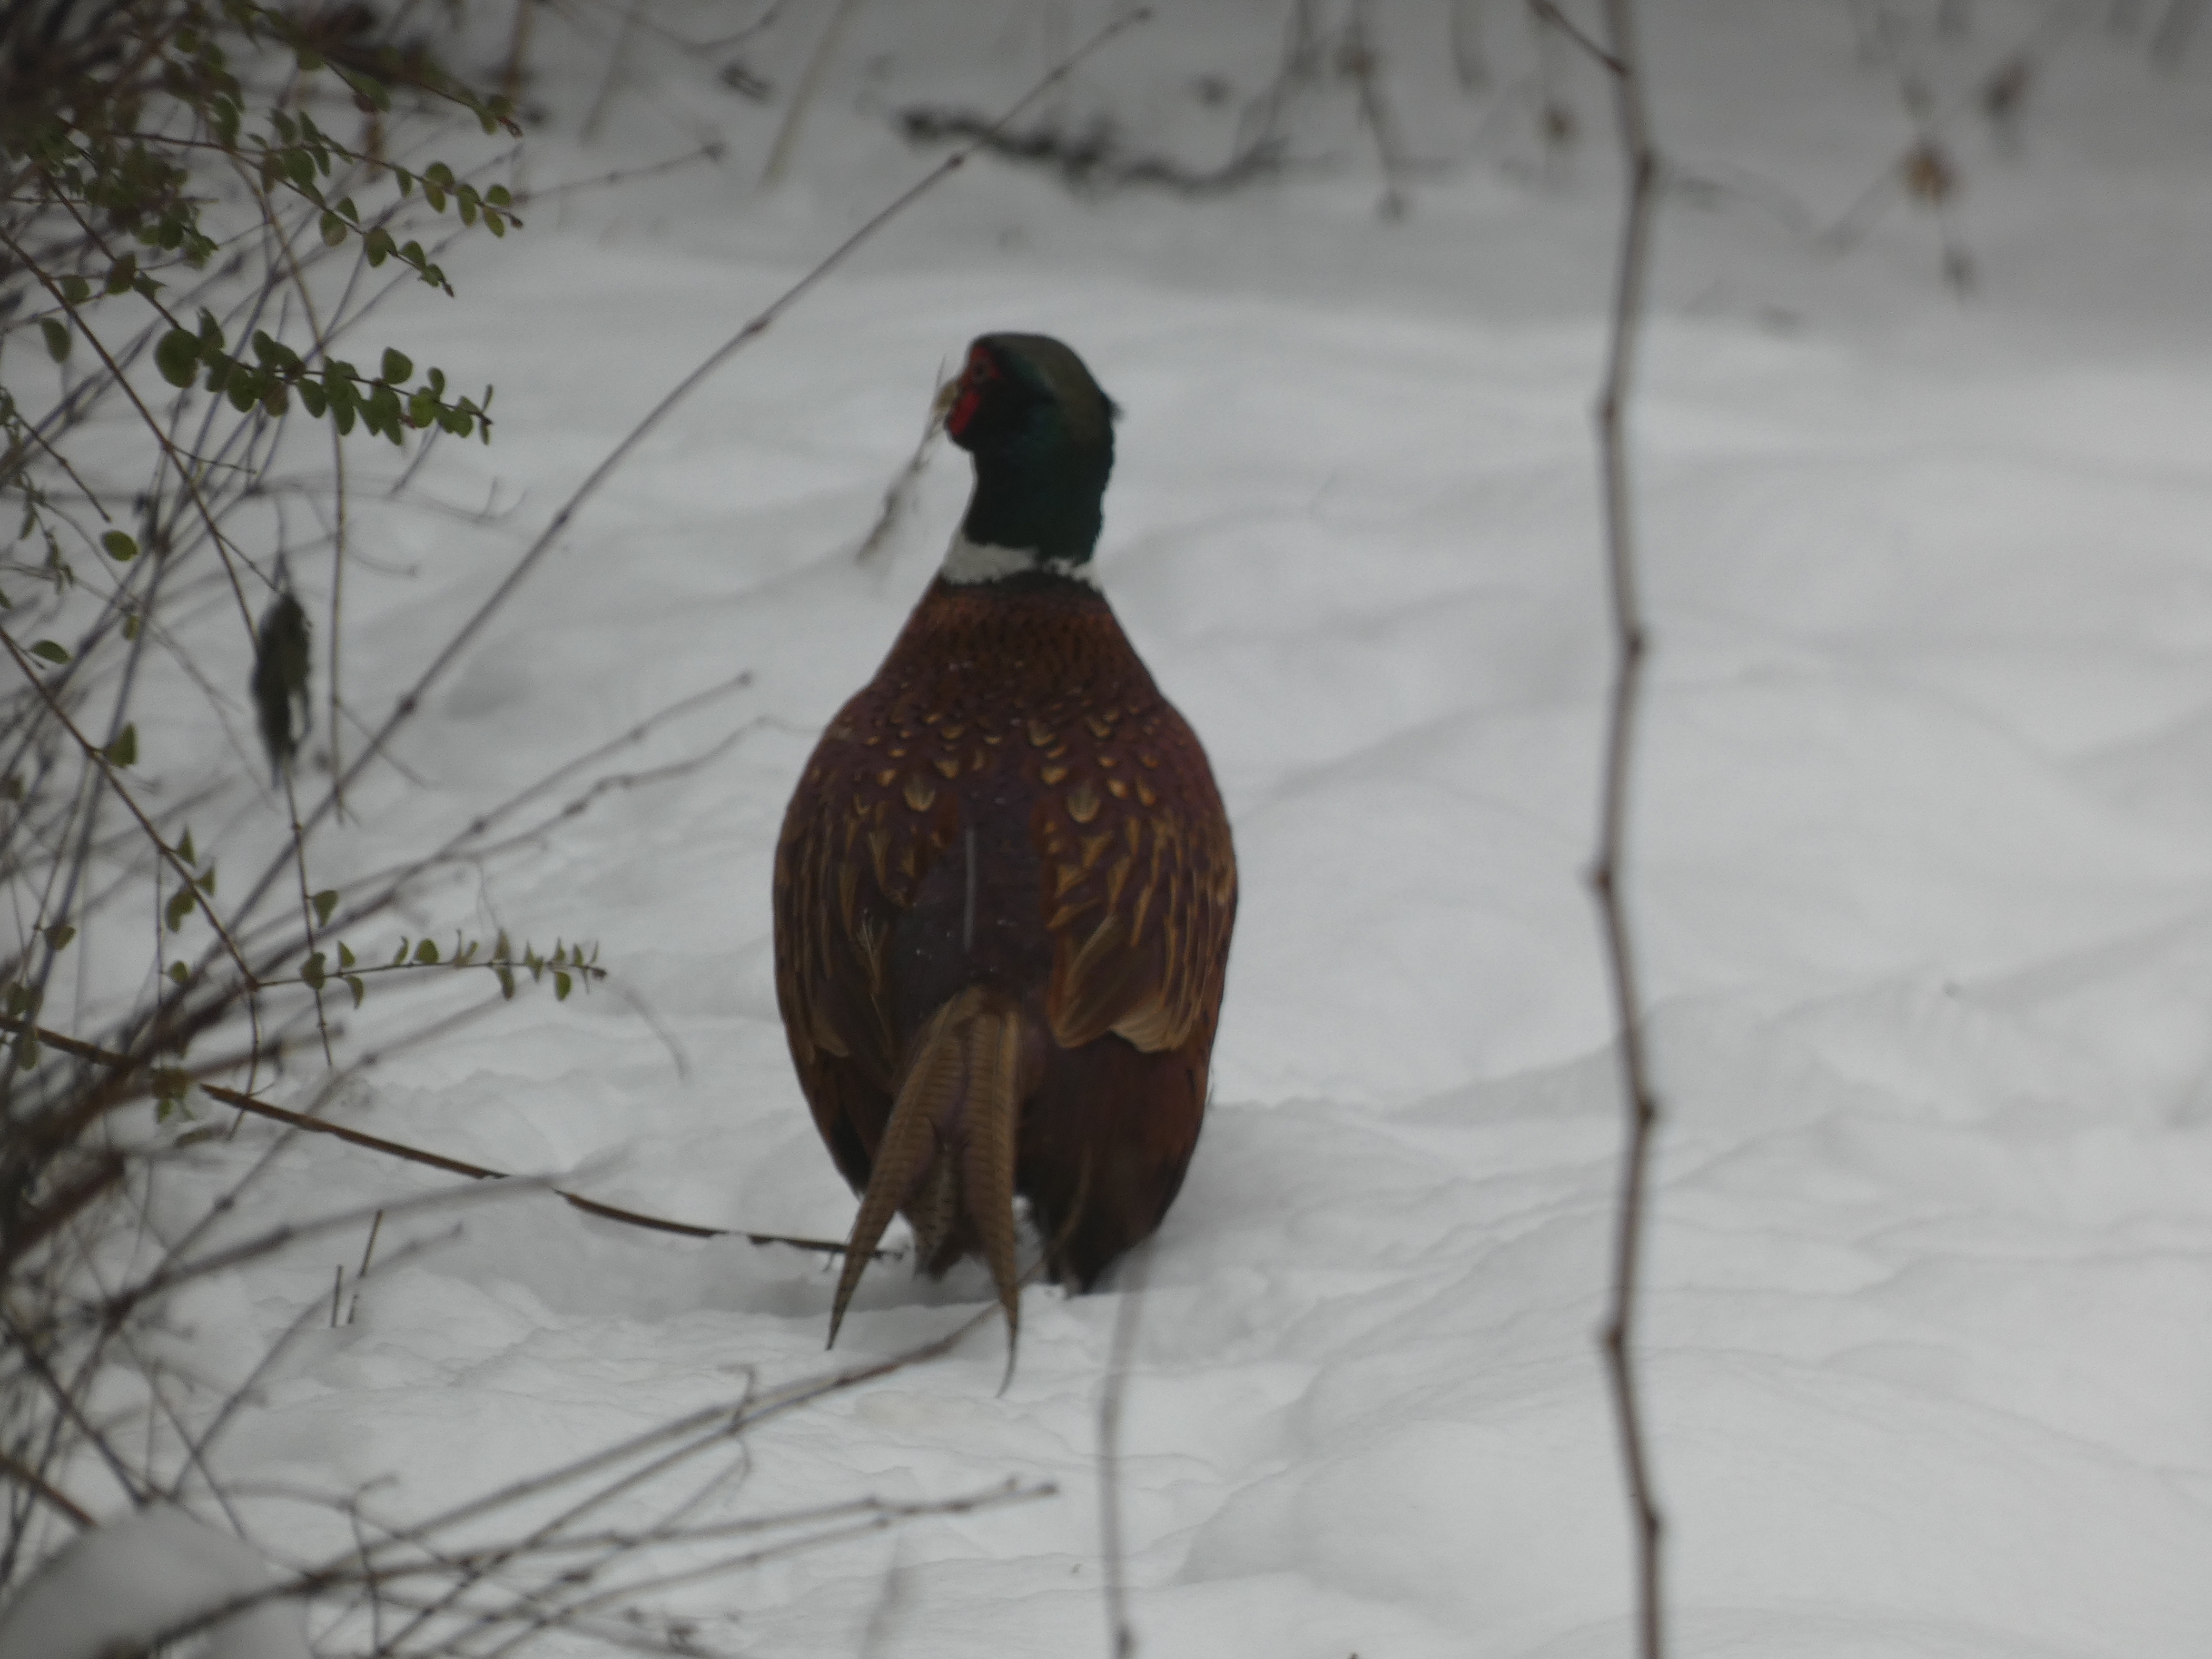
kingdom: Animalia
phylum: Chordata
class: Aves
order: Galliformes
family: Phasianidae
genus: Phasianus
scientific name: Phasianus colchicus
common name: Fasan
